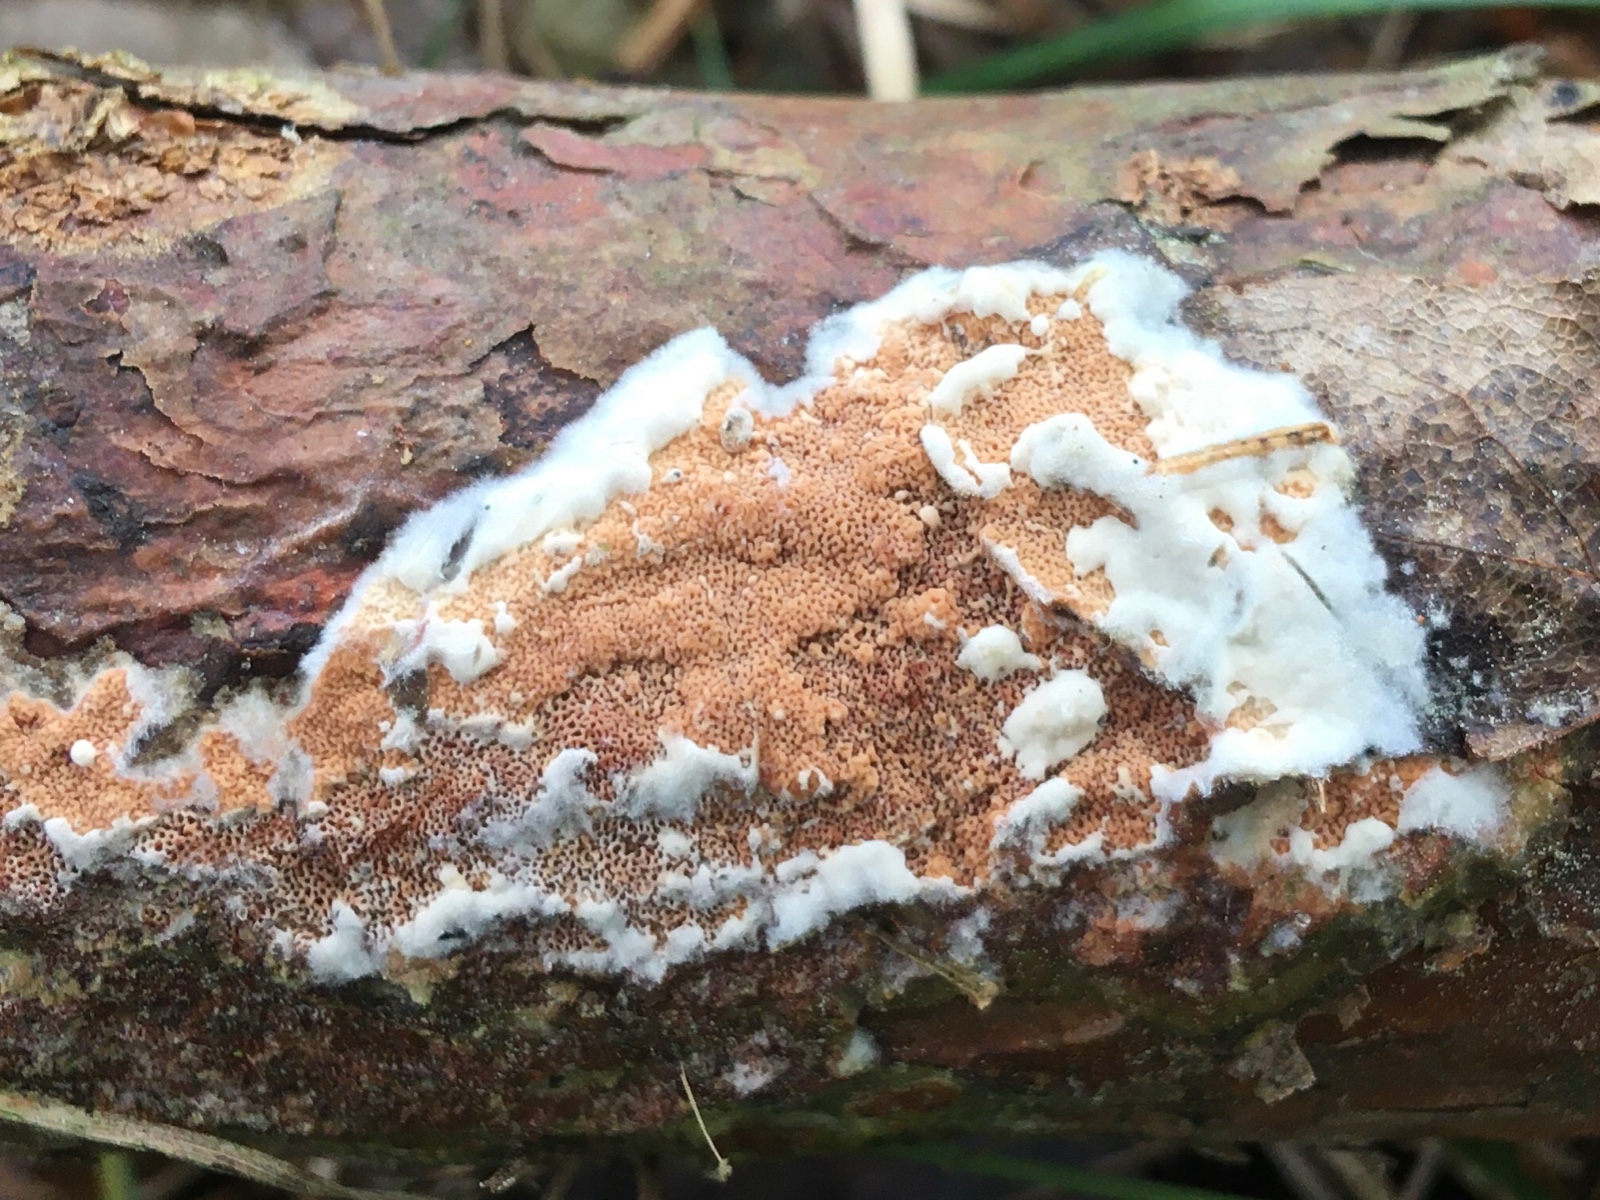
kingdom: Fungi
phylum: Basidiomycota
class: Agaricomycetes
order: Polyporales
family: Irpicaceae
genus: Meruliopsis
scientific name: Meruliopsis taxicola
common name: purpurbrun foldporesvamp
